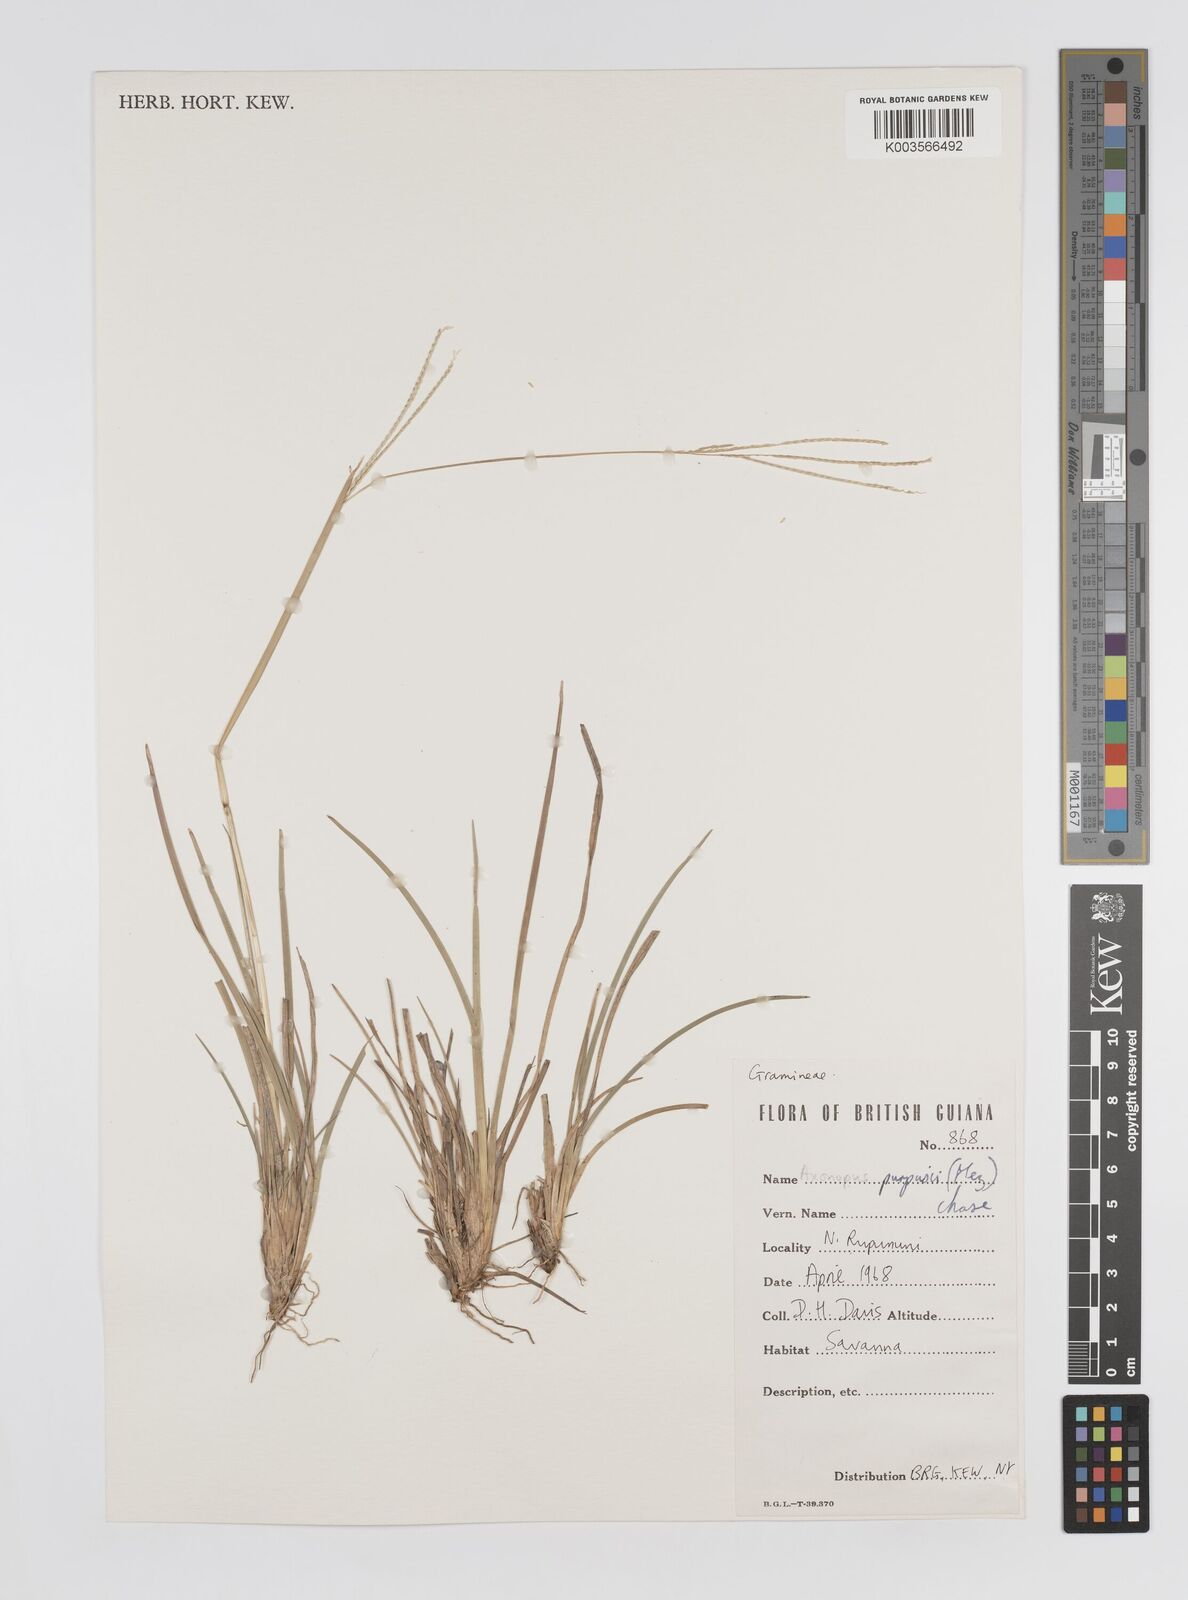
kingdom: Plantae
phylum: Tracheophyta
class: Liliopsida
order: Poales
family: Poaceae
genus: Axonopus
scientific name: Axonopus purpusii
